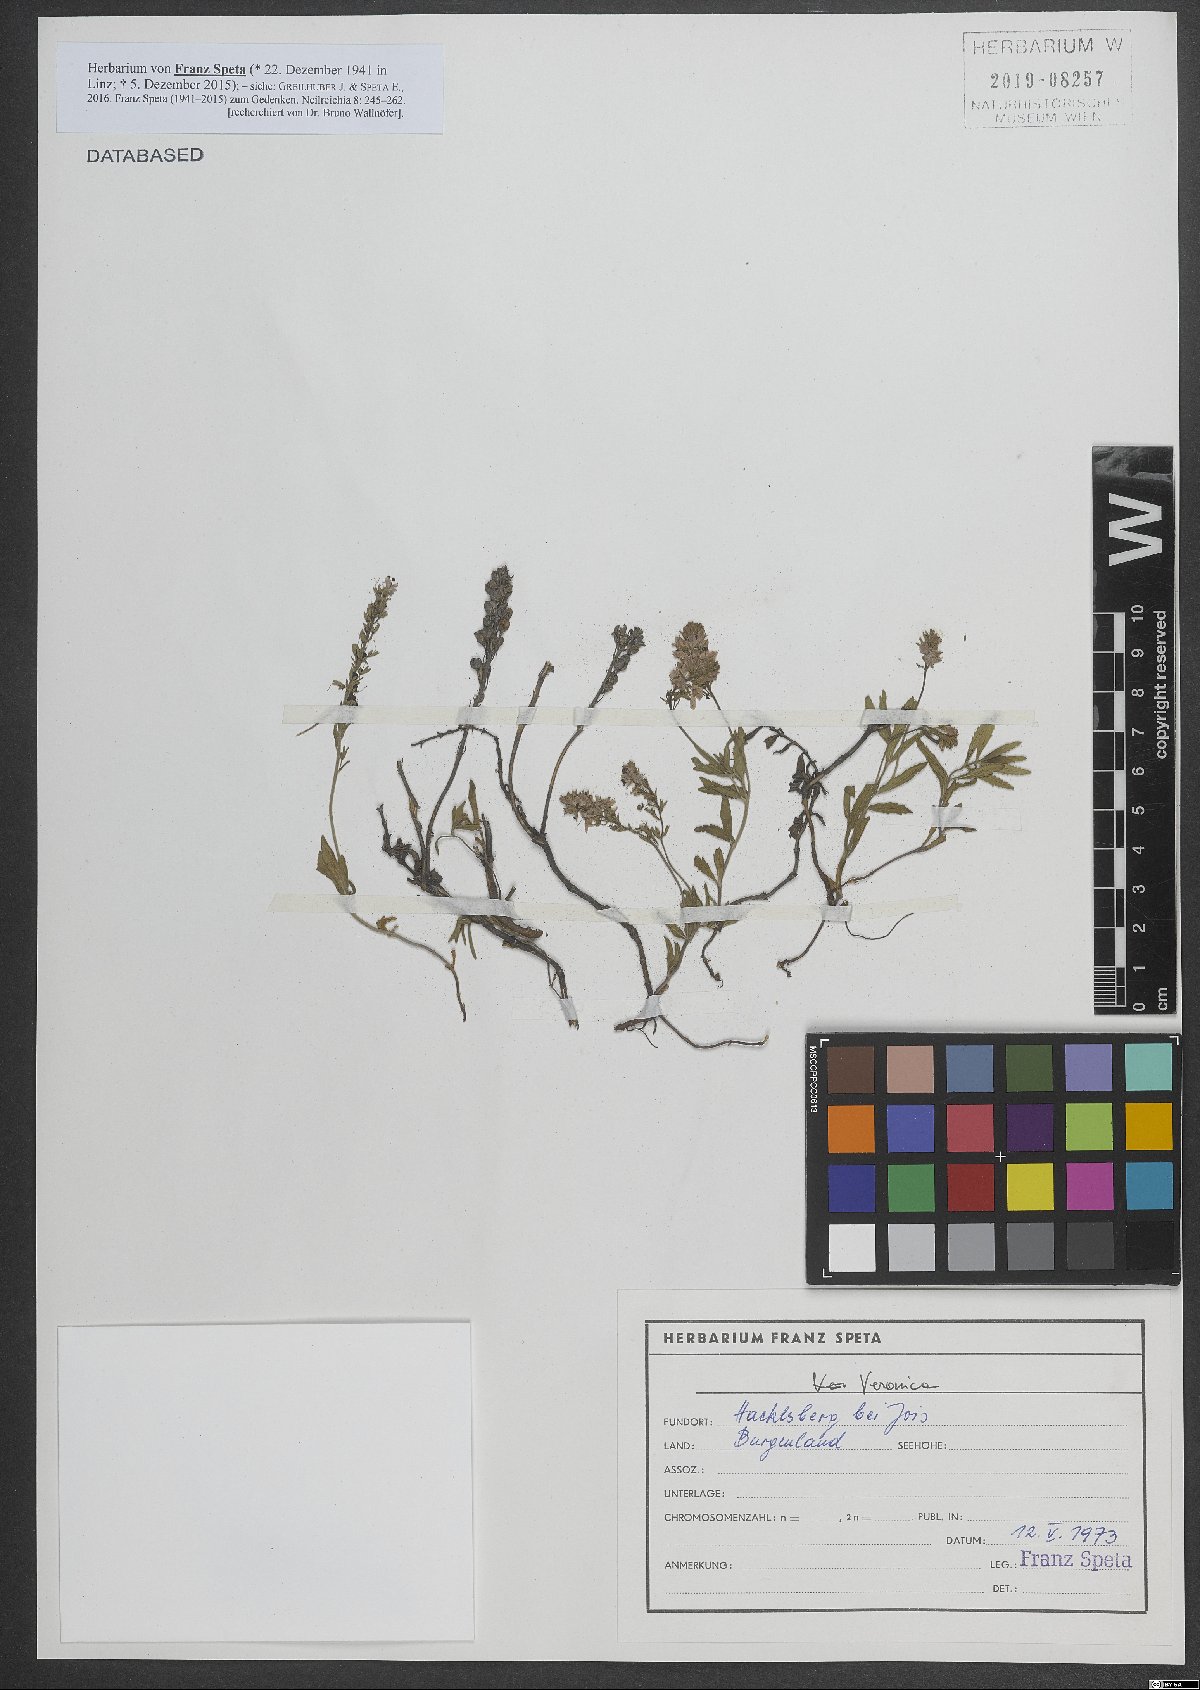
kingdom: Plantae
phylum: Tracheophyta
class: Magnoliopsida
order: Lamiales
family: Plantaginaceae
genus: Veronica
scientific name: Veronica
